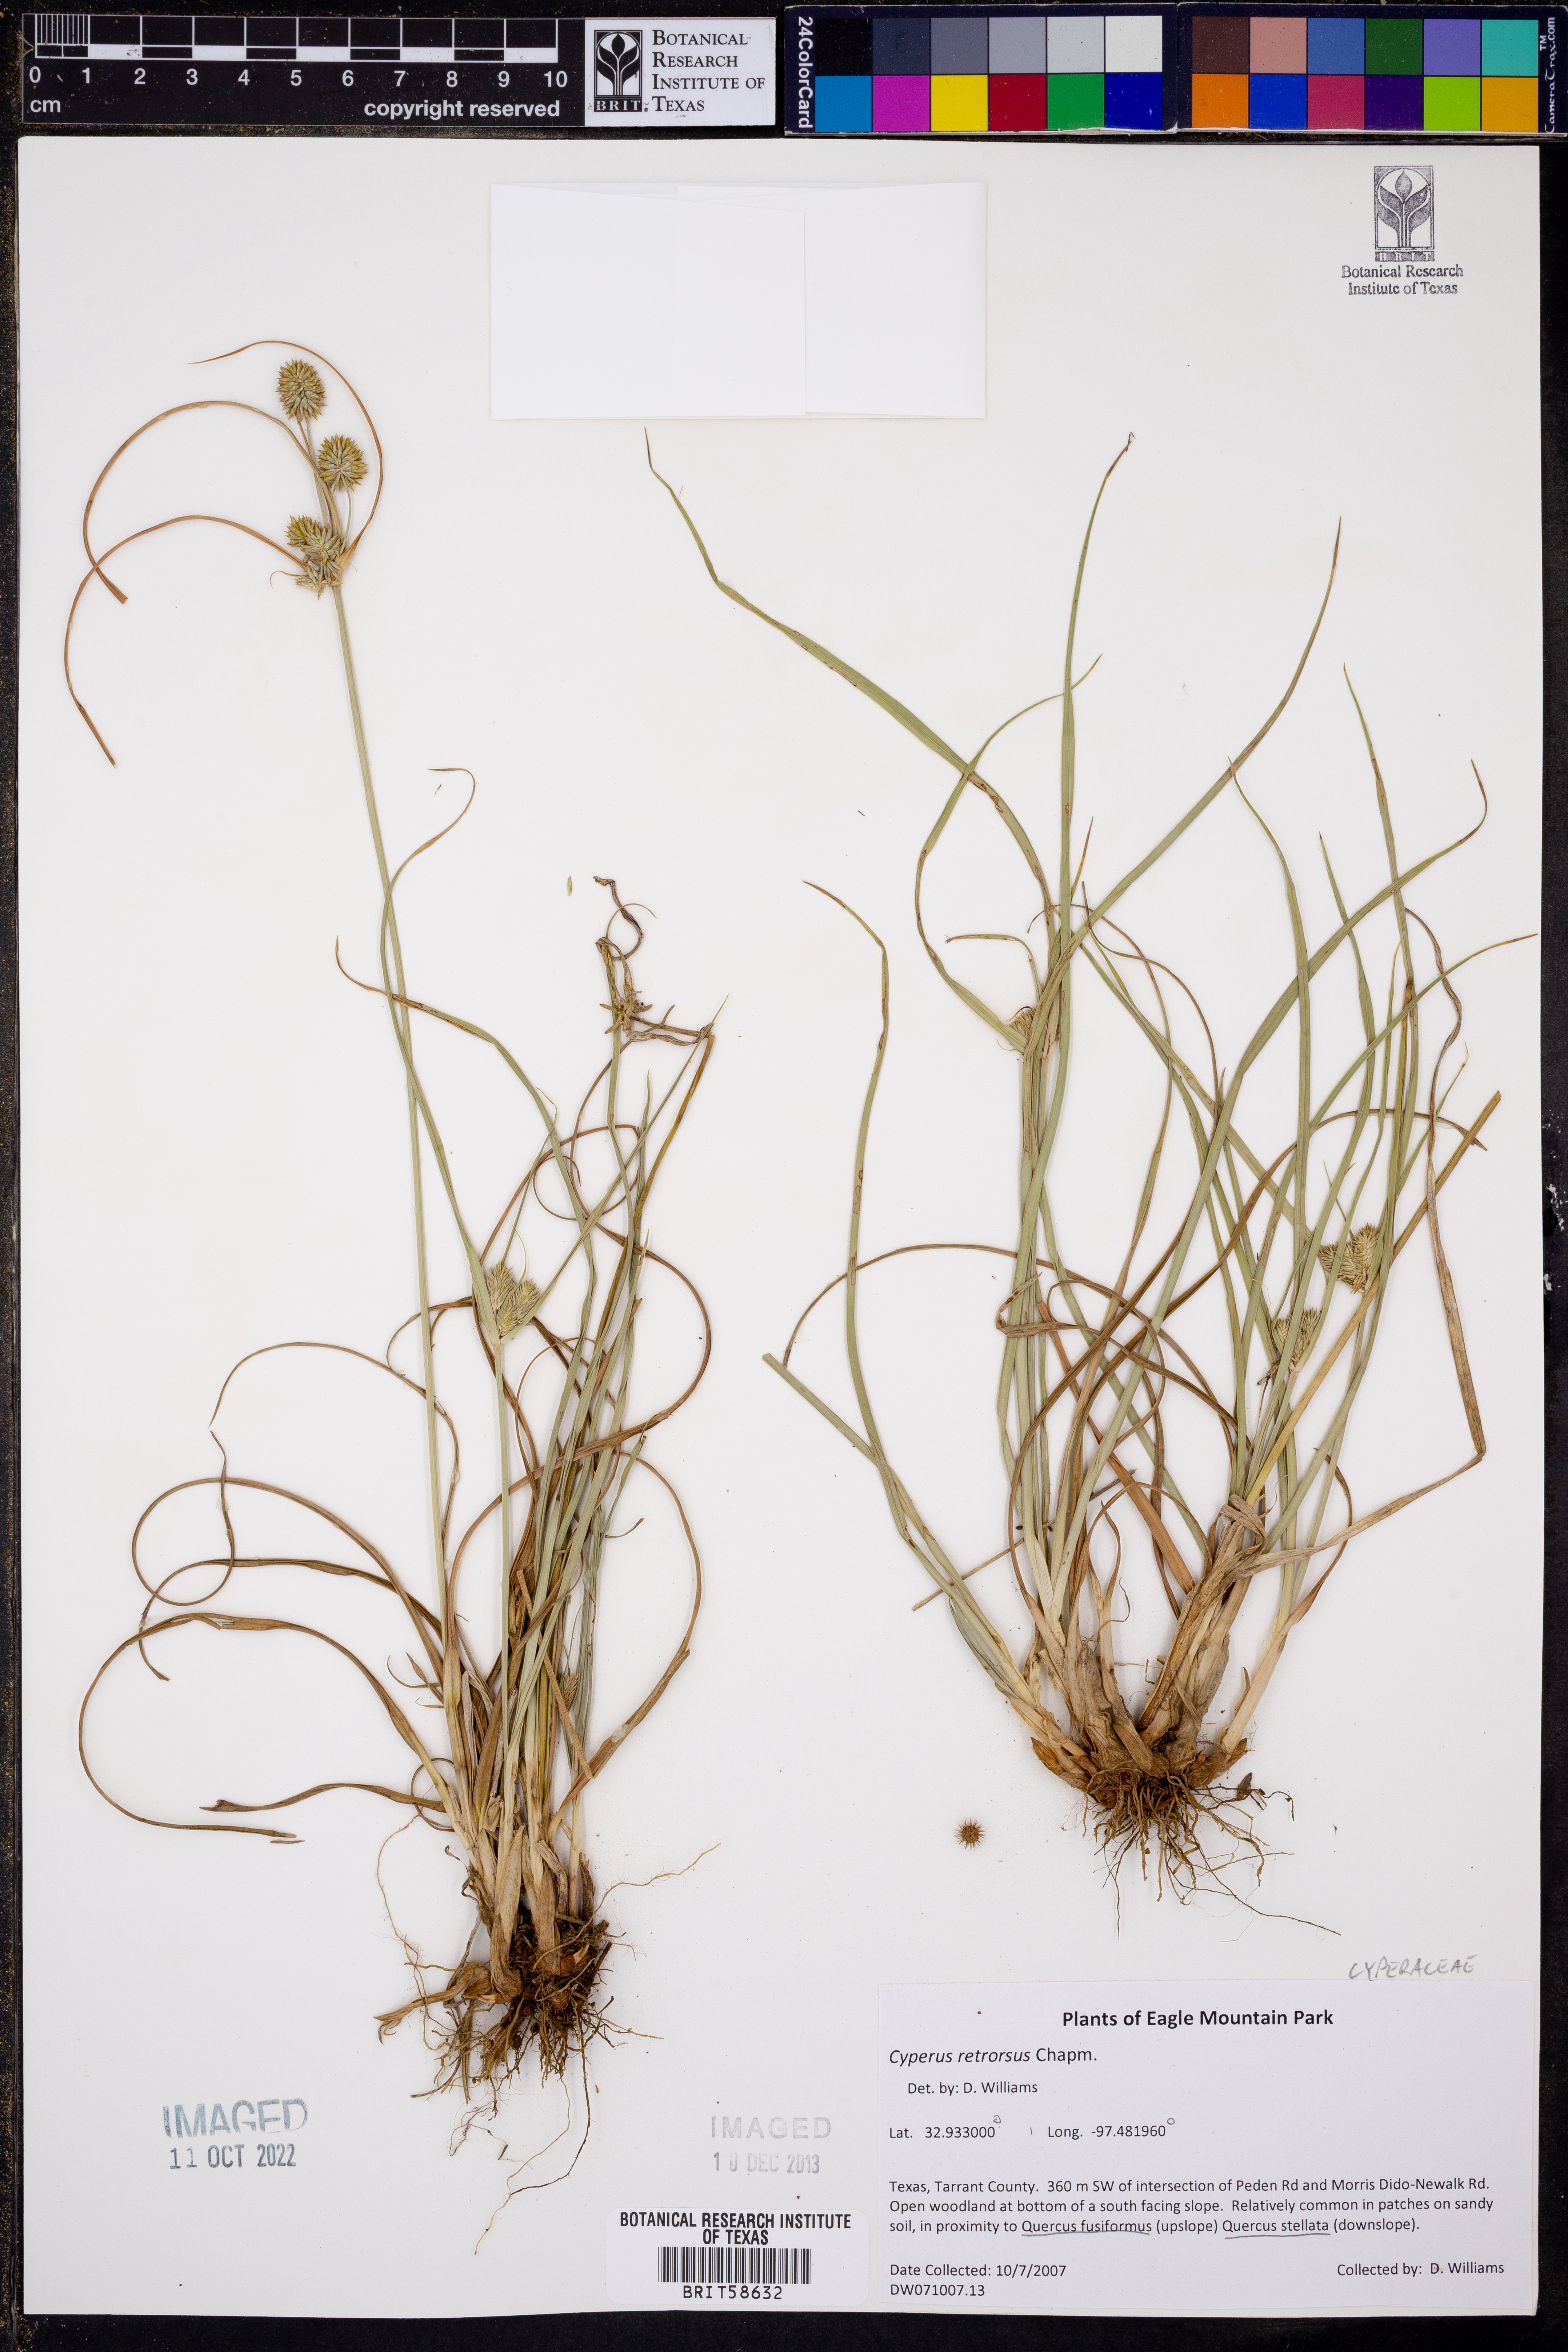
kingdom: Plantae
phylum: Tracheophyta
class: Liliopsida
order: Poales
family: Cyperaceae
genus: Cyperus
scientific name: Cyperus retrorsus
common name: Pinebarren flat sedge
